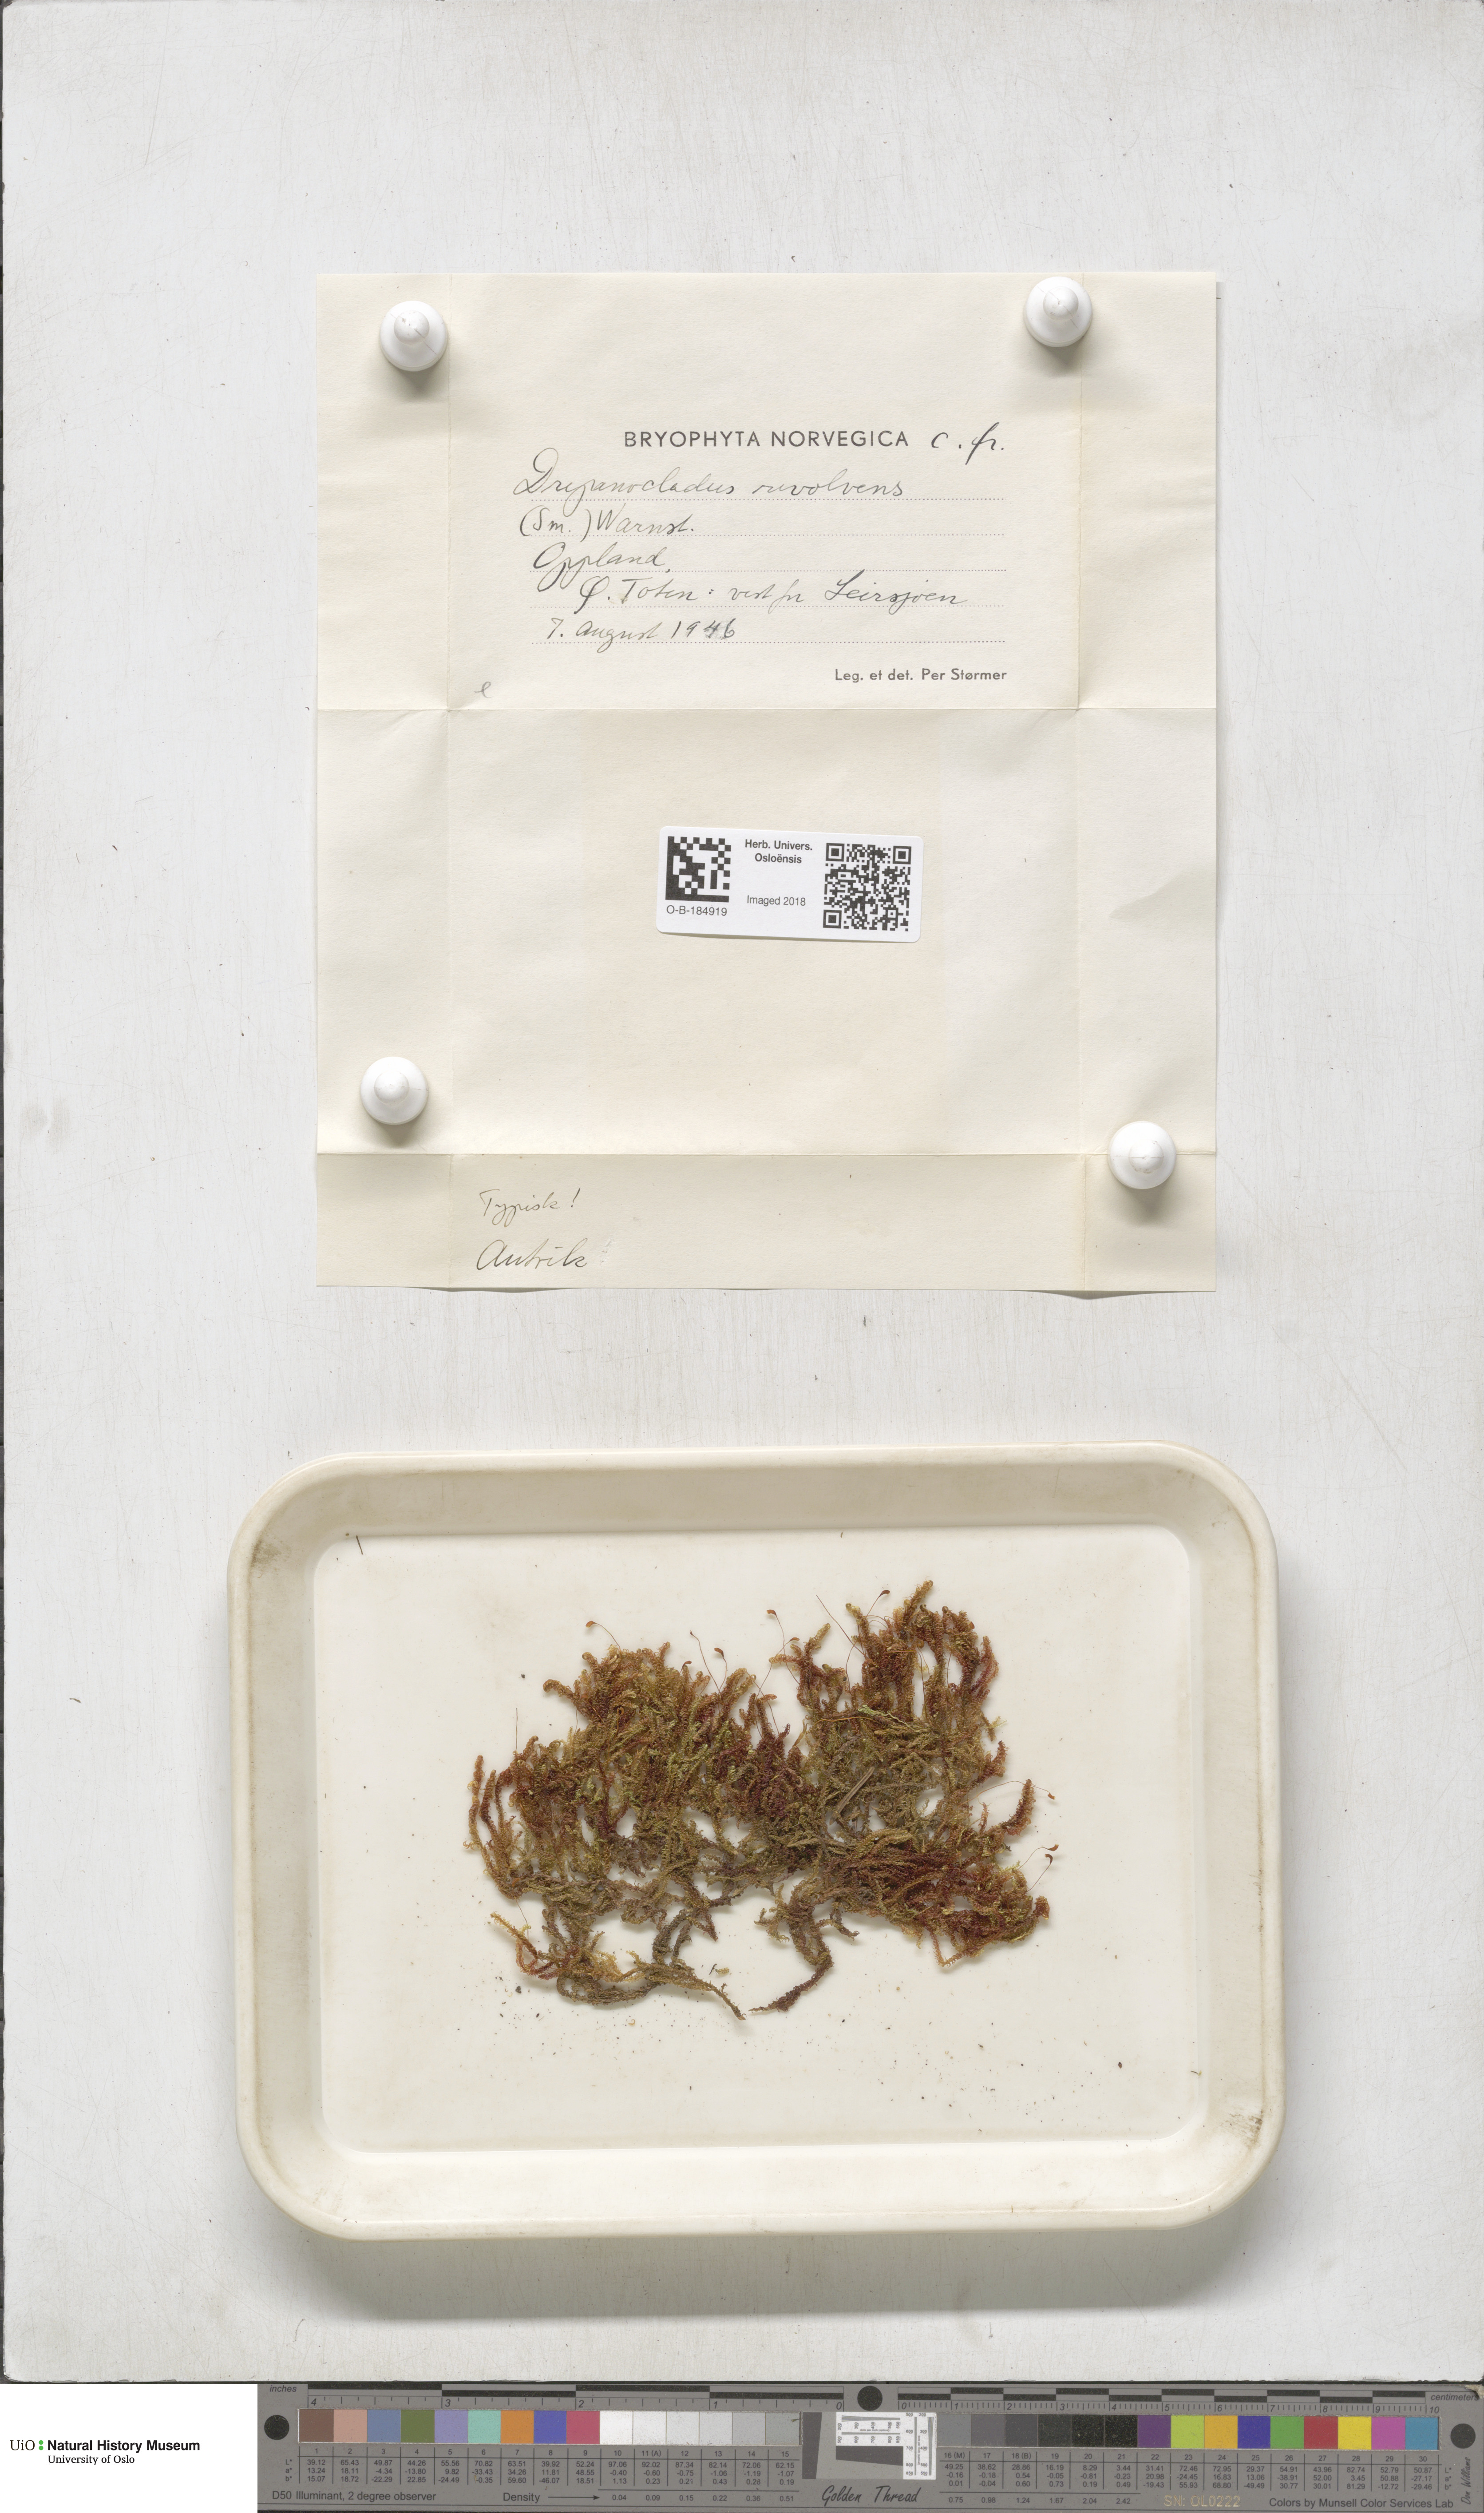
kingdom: Plantae
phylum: Bryophyta
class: Bryopsida
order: Hypnales
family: Scorpidiaceae
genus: Scorpidium
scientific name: Scorpidium revolvens
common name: Rusty hook moss
